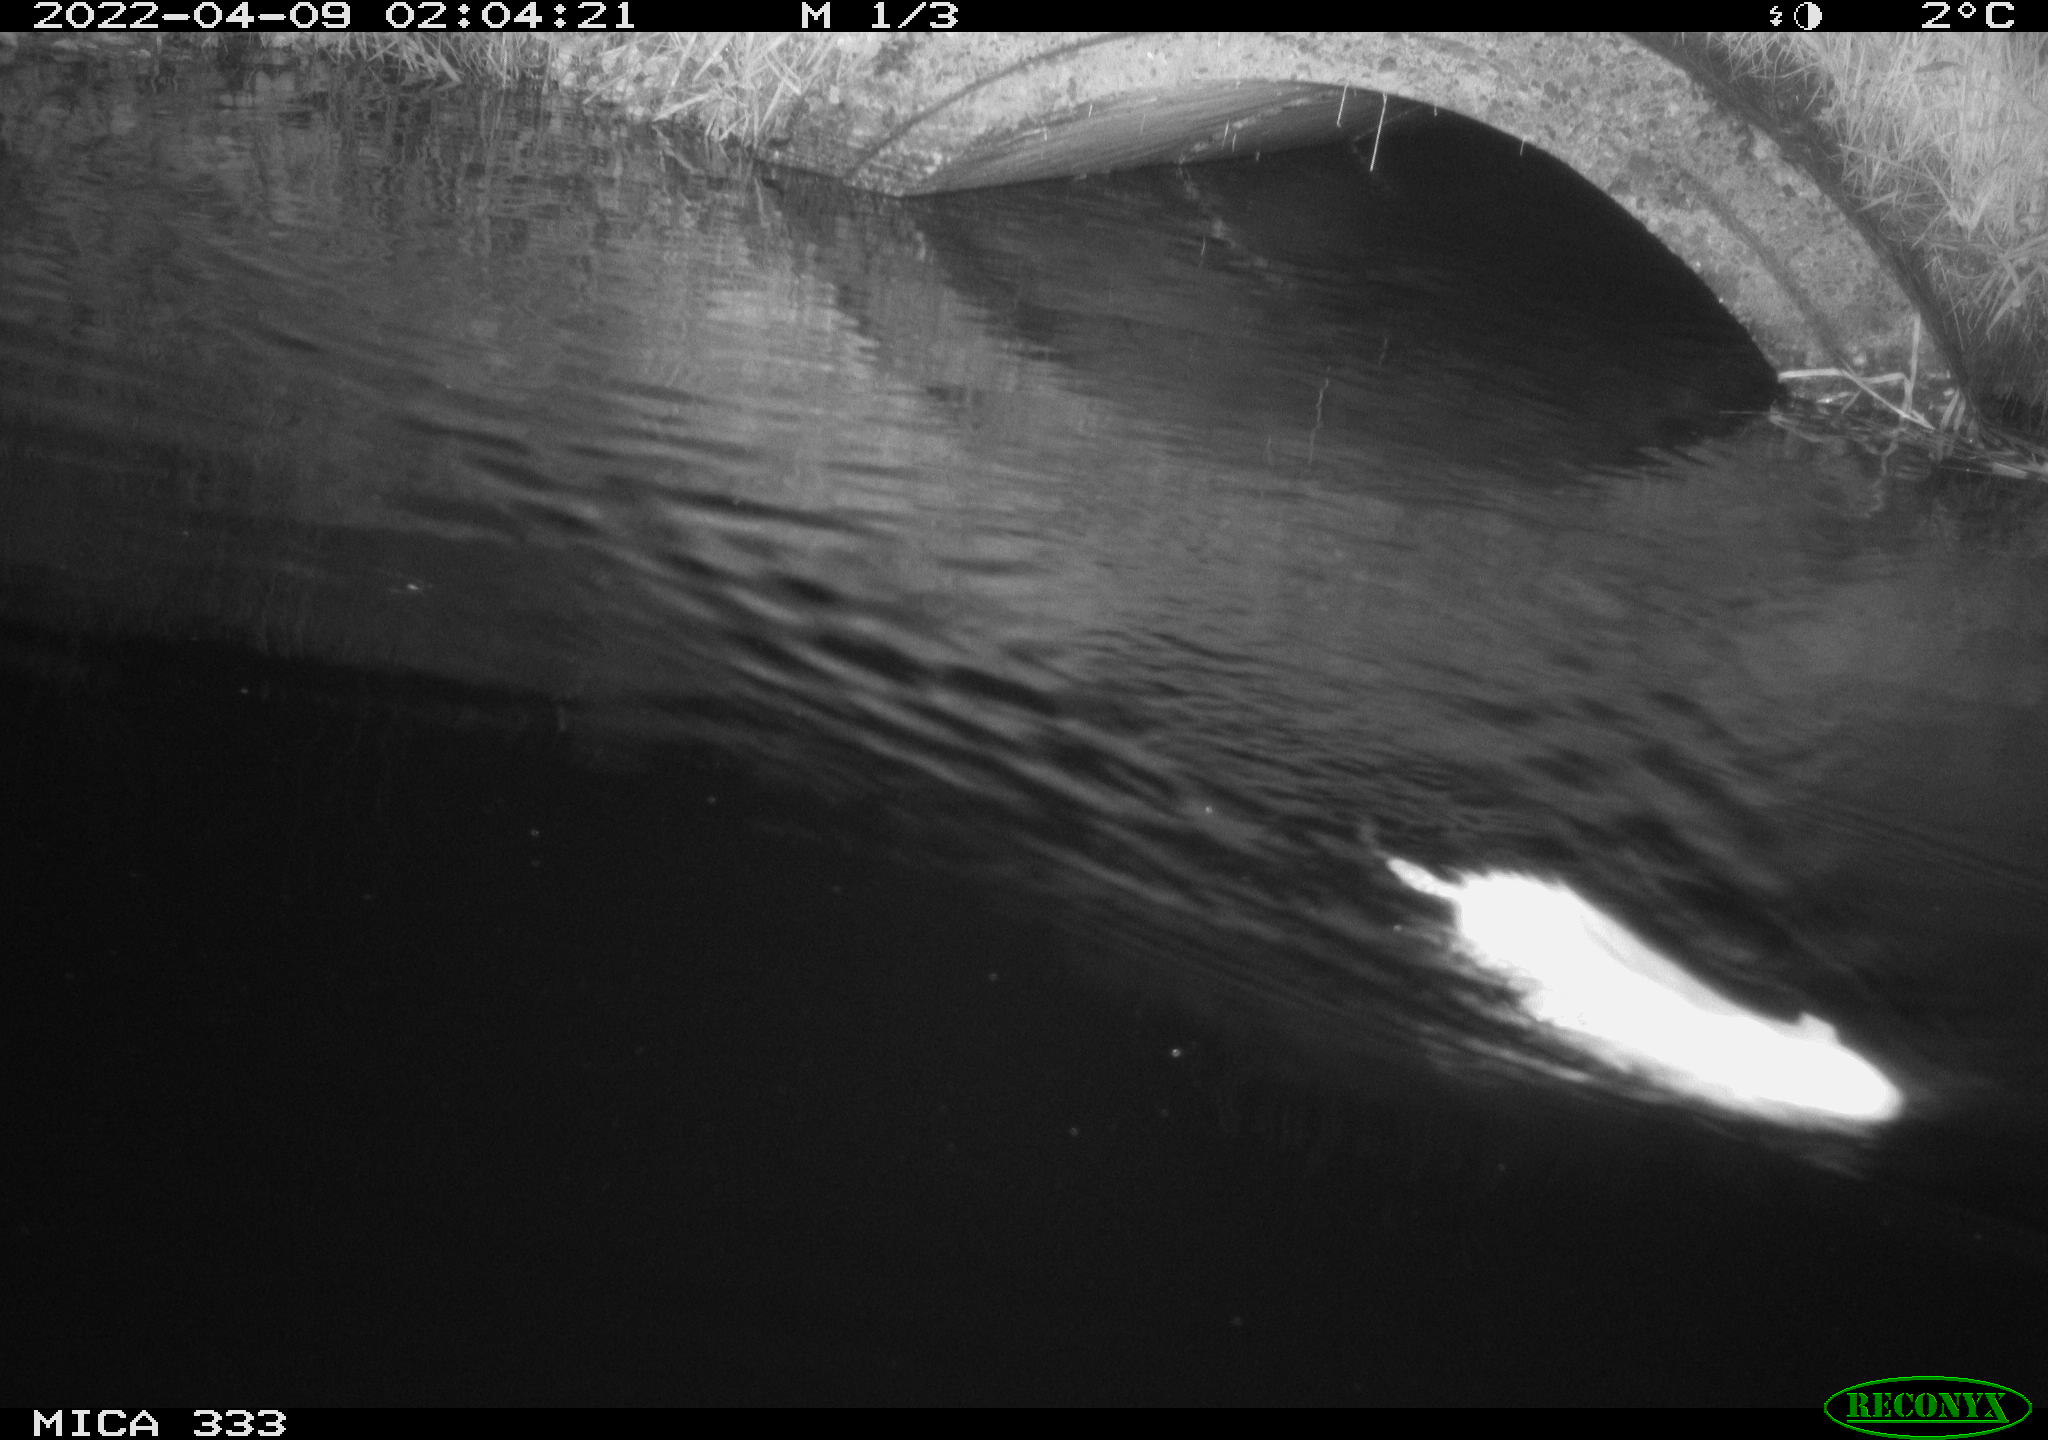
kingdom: Animalia
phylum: Chordata
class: Mammalia
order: Rodentia
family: Muridae
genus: Rattus
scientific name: Rattus norvegicus
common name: Brown rat
